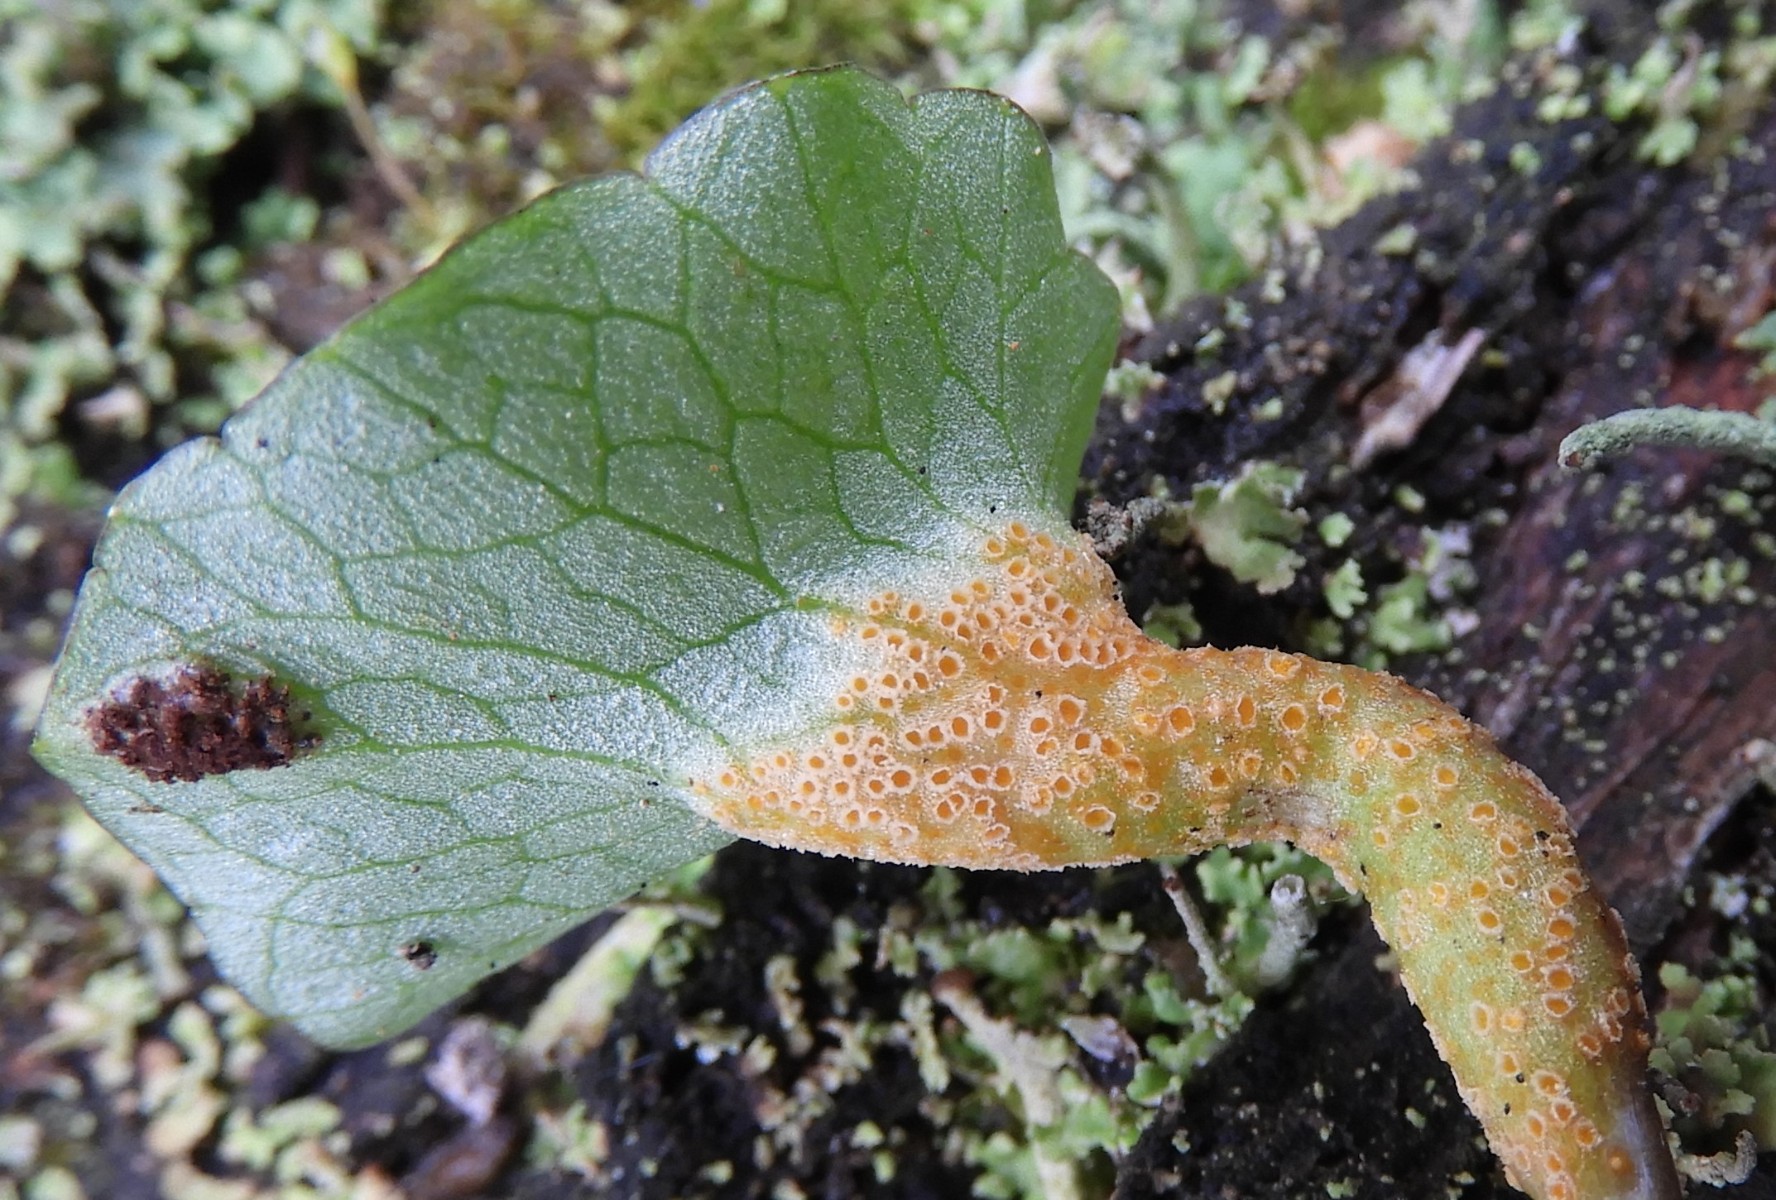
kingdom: Fungi
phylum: Basidiomycota
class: Pucciniomycetes
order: Pucciniales
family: Pucciniaceae
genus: Uromyces
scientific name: Uromyces ficariae
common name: vorterod-encellerust
